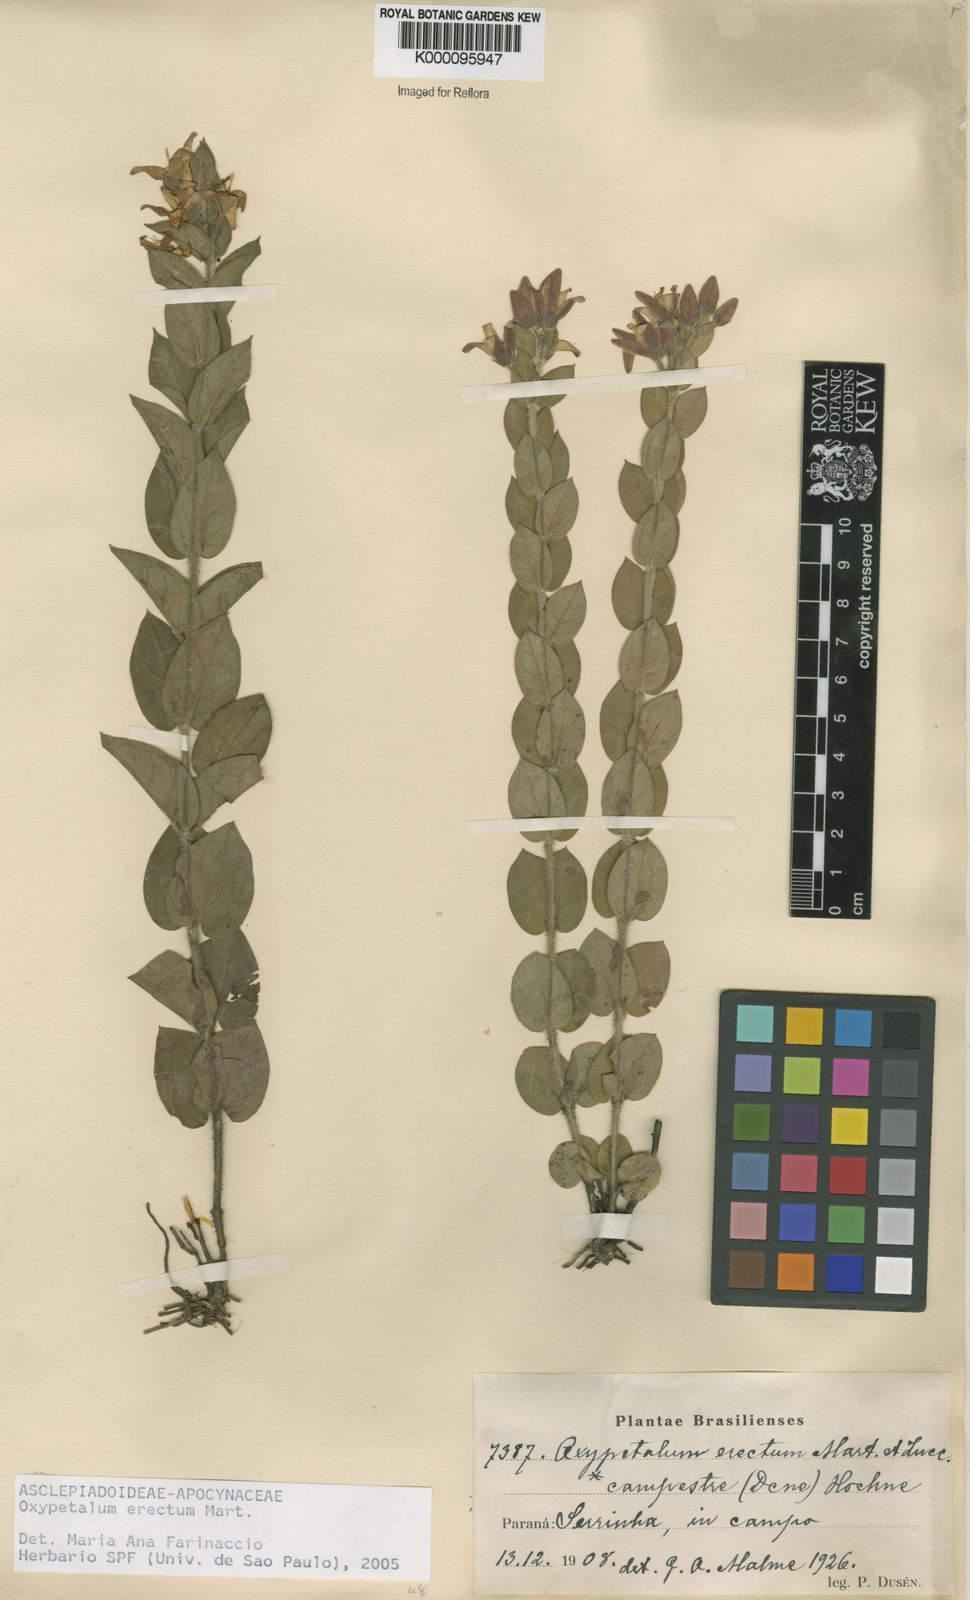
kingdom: Plantae
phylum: Tracheophyta
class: Magnoliopsida
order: Gentianales
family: Apocynaceae
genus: Oxypetalum
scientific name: Oxypetalum erectum
